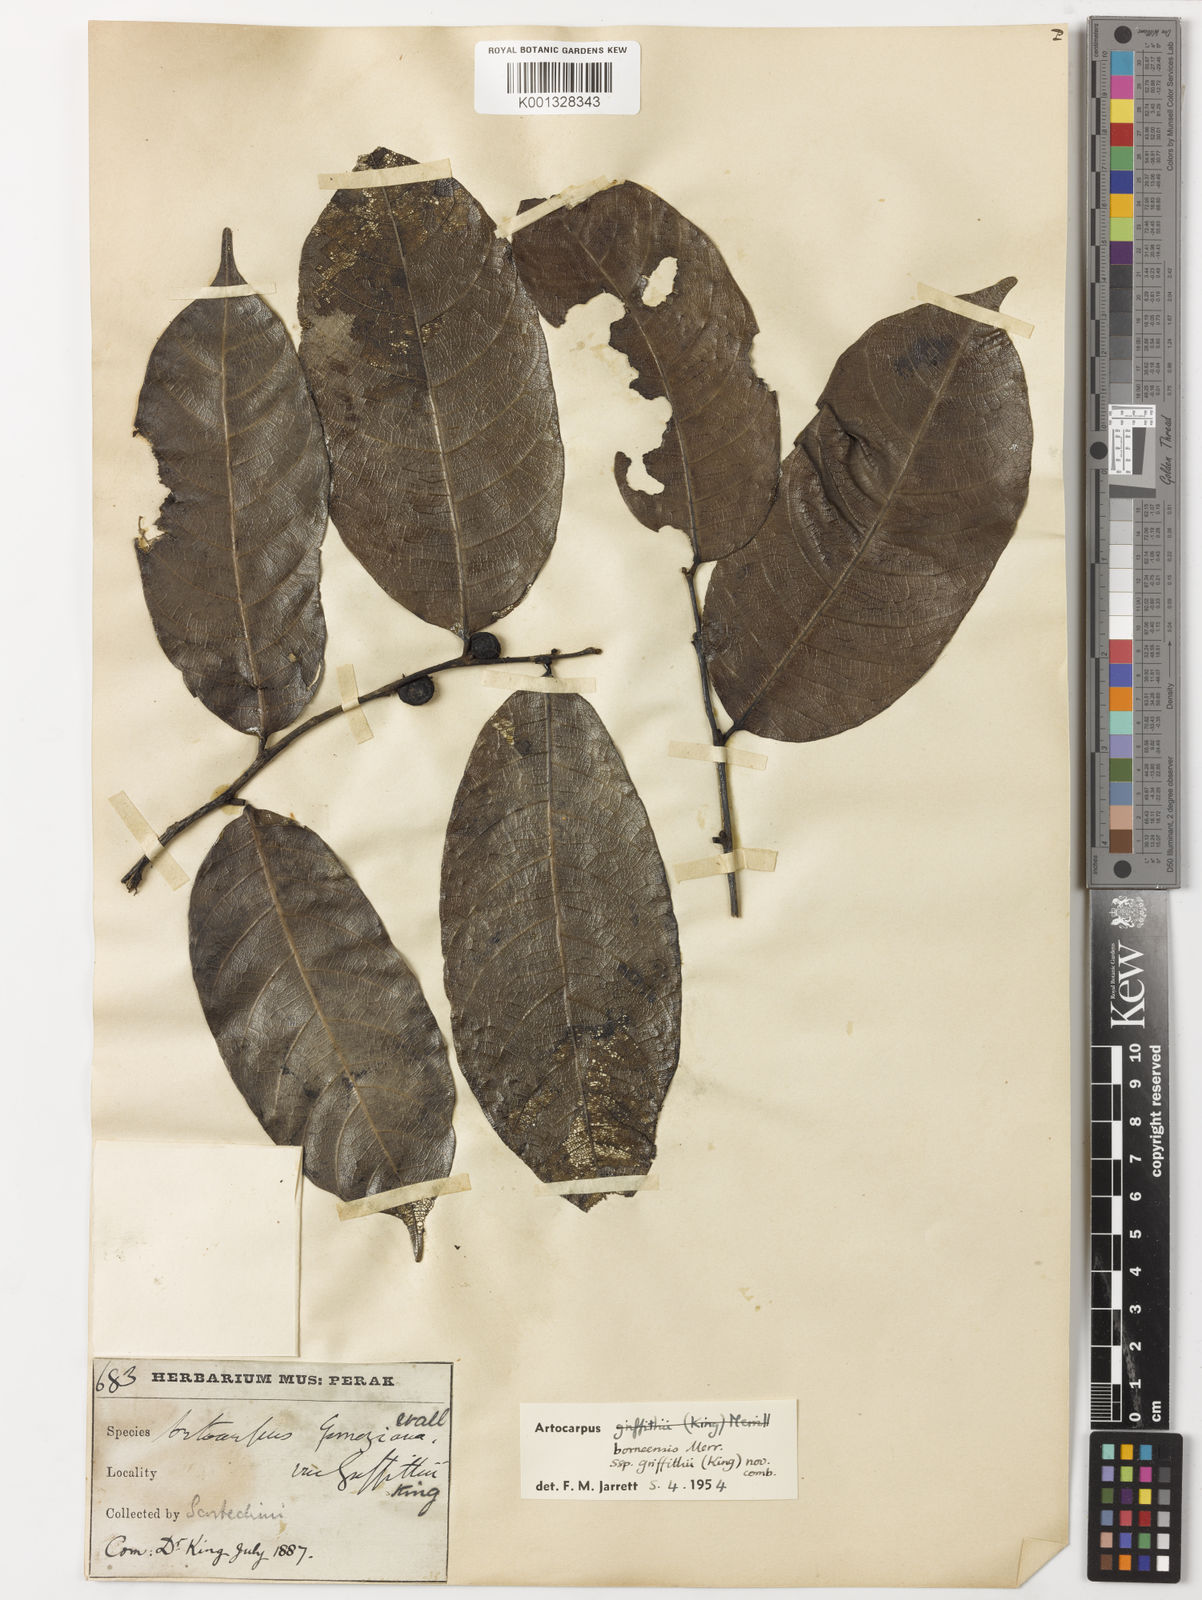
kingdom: Plantae
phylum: Tracheophyta
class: Magnoliopsida
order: Rosales
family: Moraceae
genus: Artocarpus
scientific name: Artocarpus lamellosus
